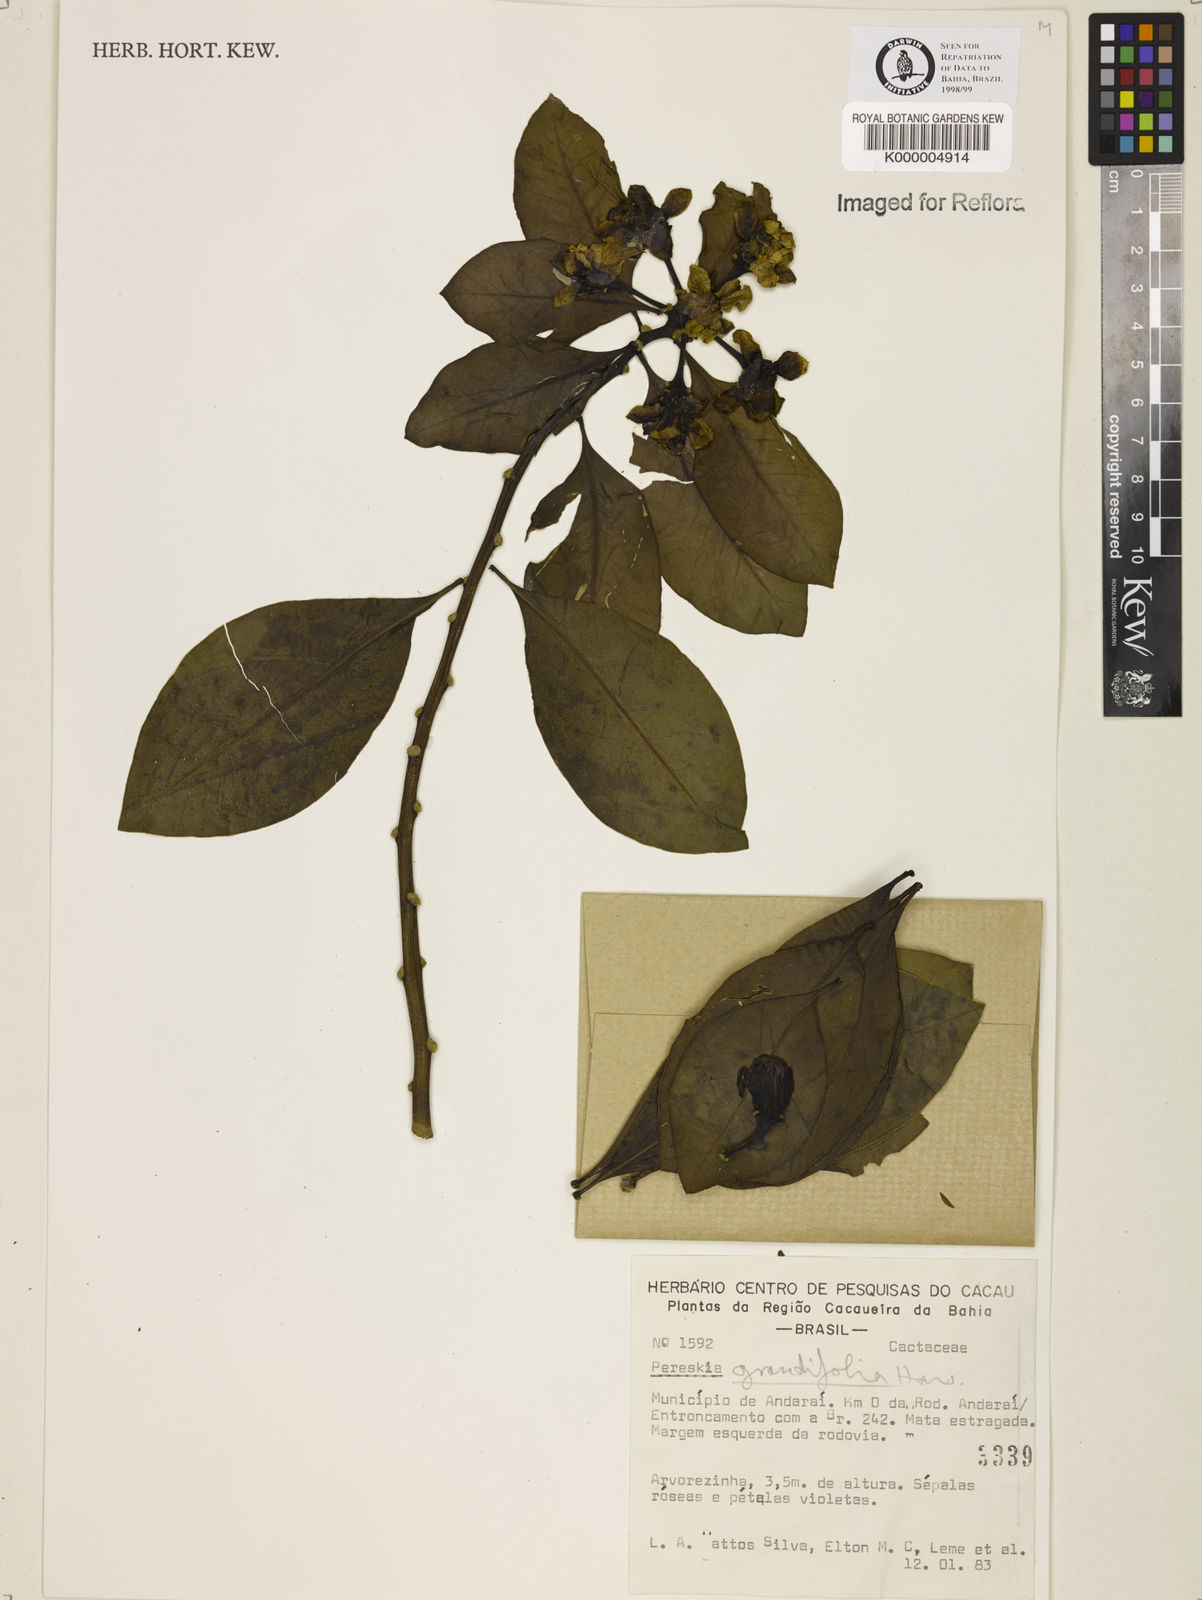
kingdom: Plantae
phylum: Tracheophyta
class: Magnoliopsida
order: Caryophyllales
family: Cactaceae
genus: Pereskia
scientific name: Pereskia grandifolia
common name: Rose cactus
